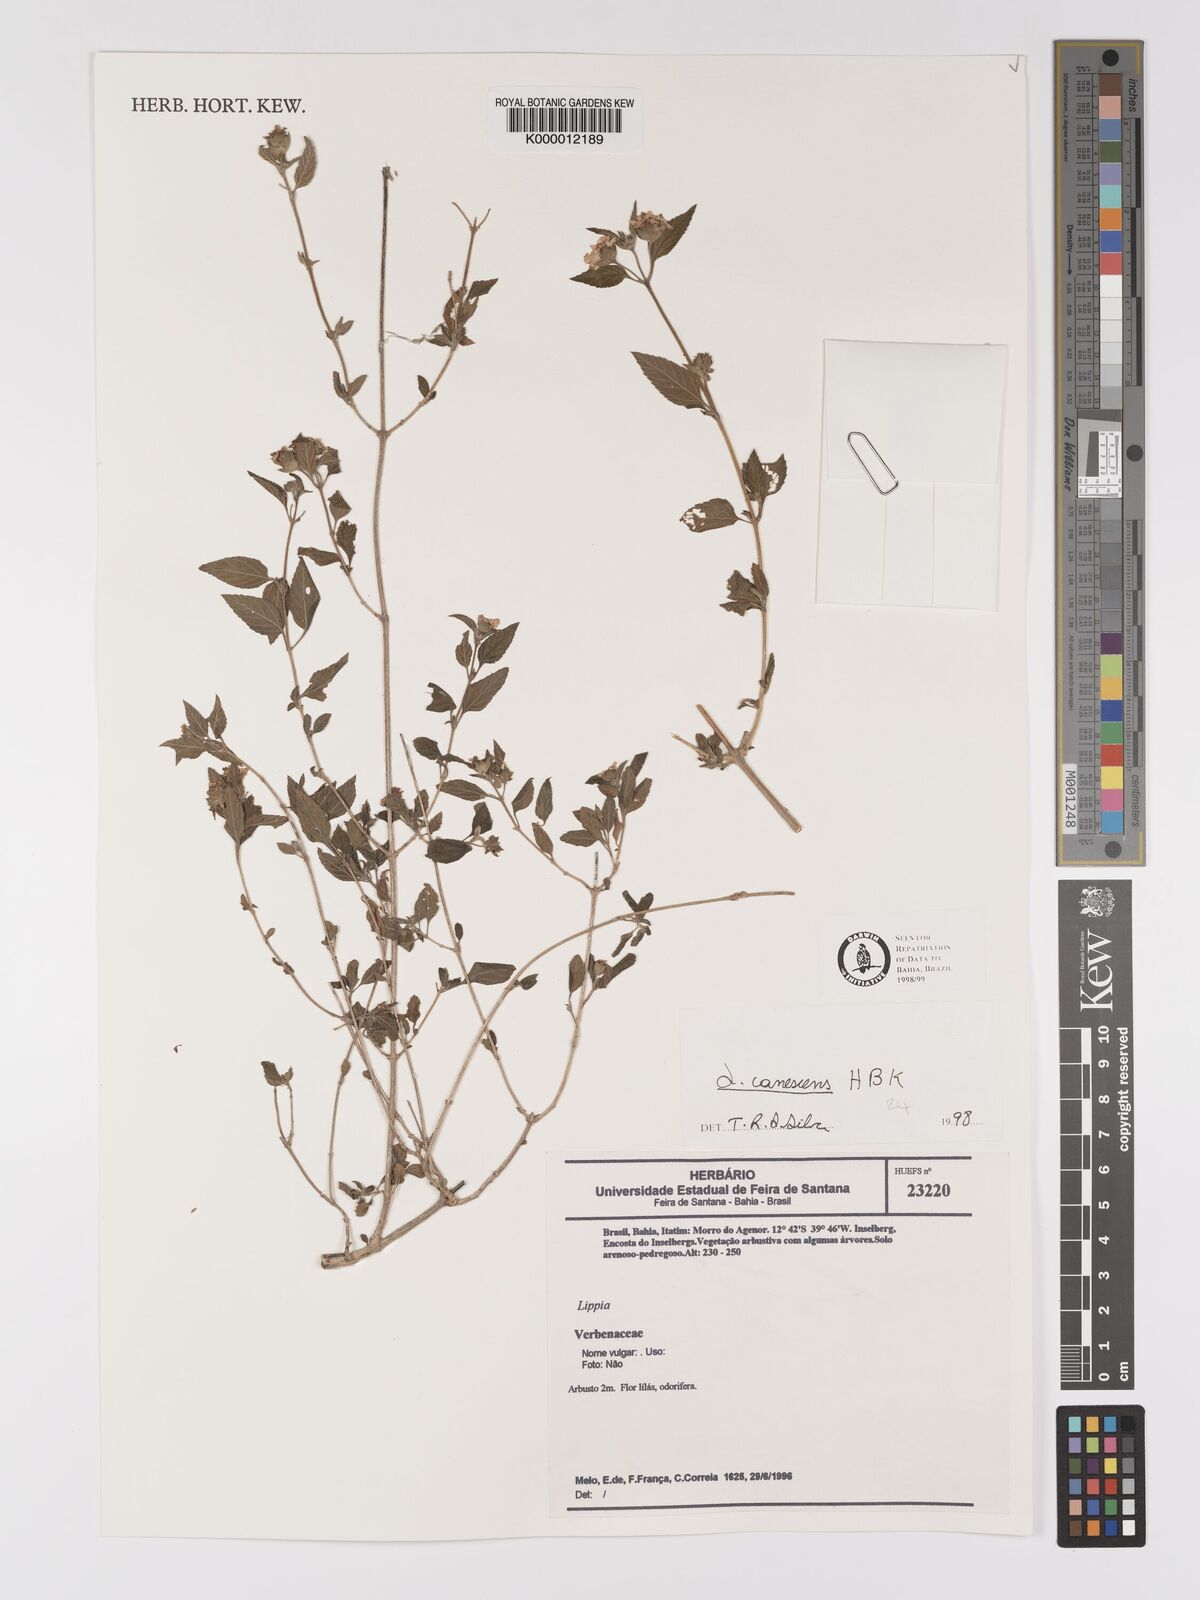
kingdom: Plantae
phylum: Tracheophyta
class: Magnoliopsida
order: Lamiales
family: Verbenaceae
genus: Lantana
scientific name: Lantana canescens
